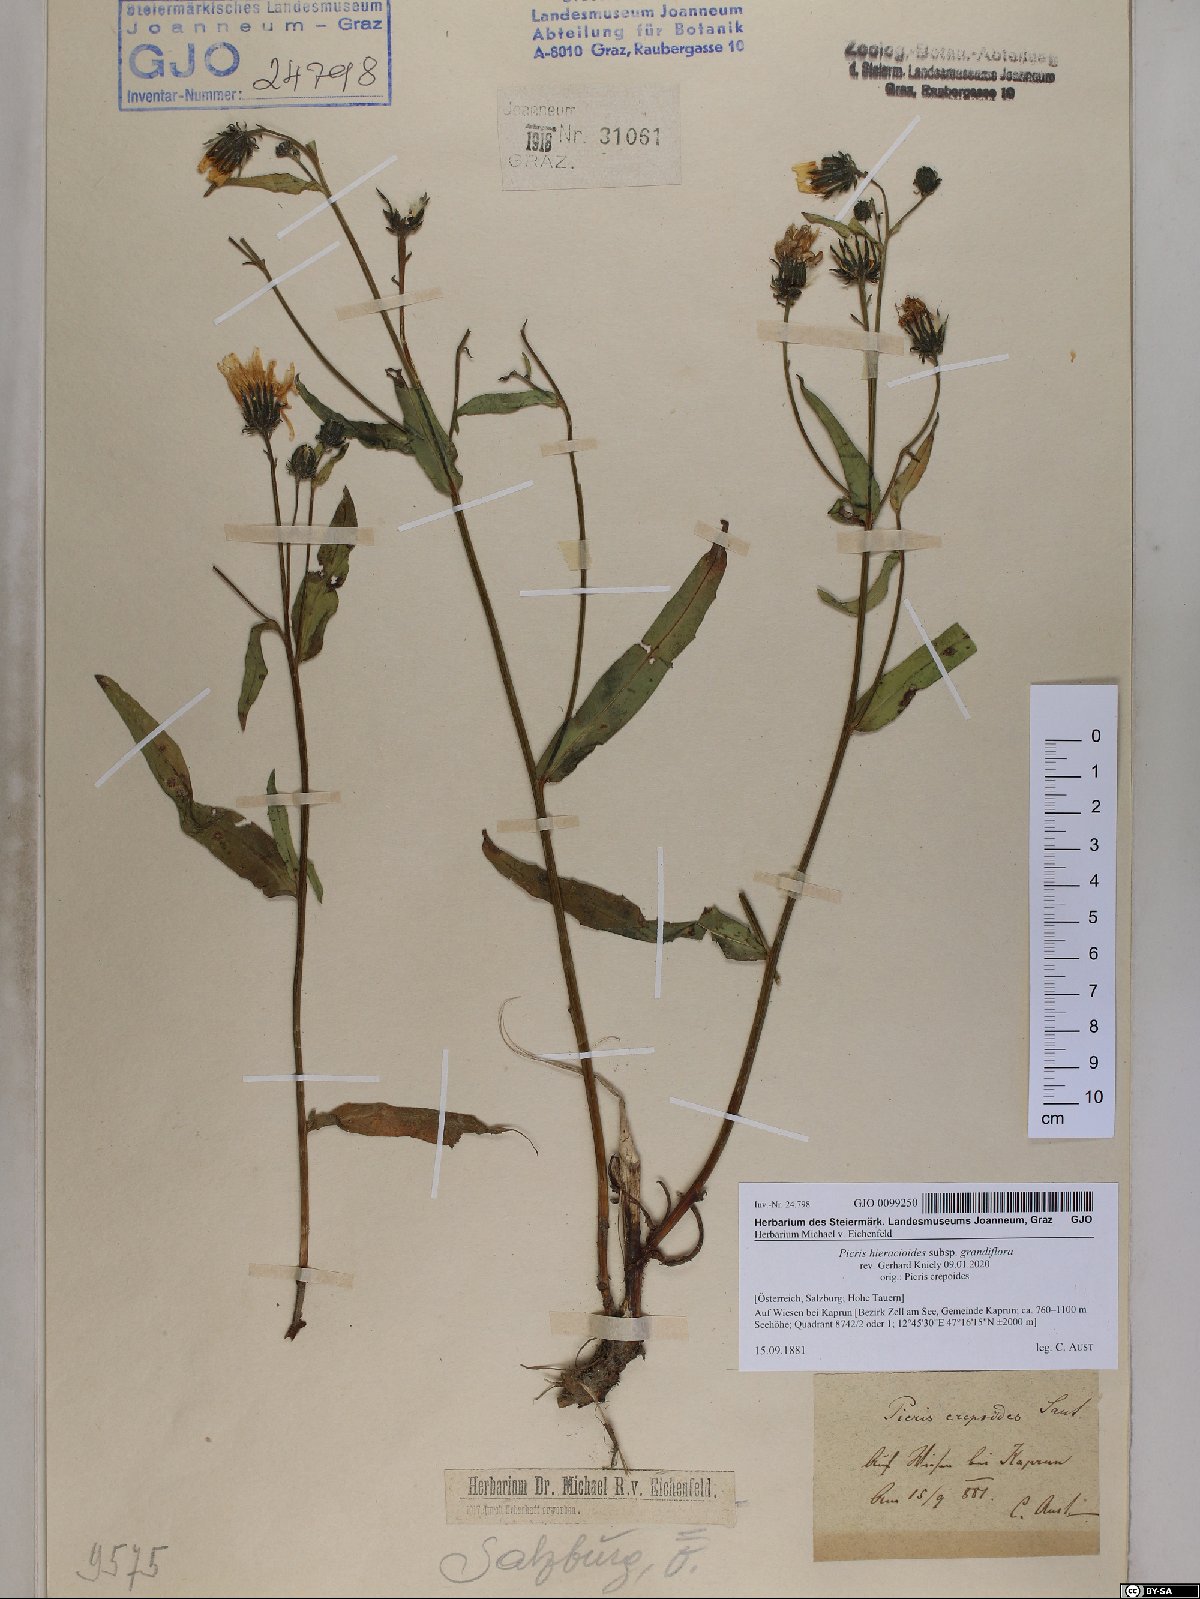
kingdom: Plantae
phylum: Tracheophyta
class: Magnoliopsida
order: Asterales
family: Asteraceae
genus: Picris
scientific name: Picris hieracioides
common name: Hawkweed oxtongue
